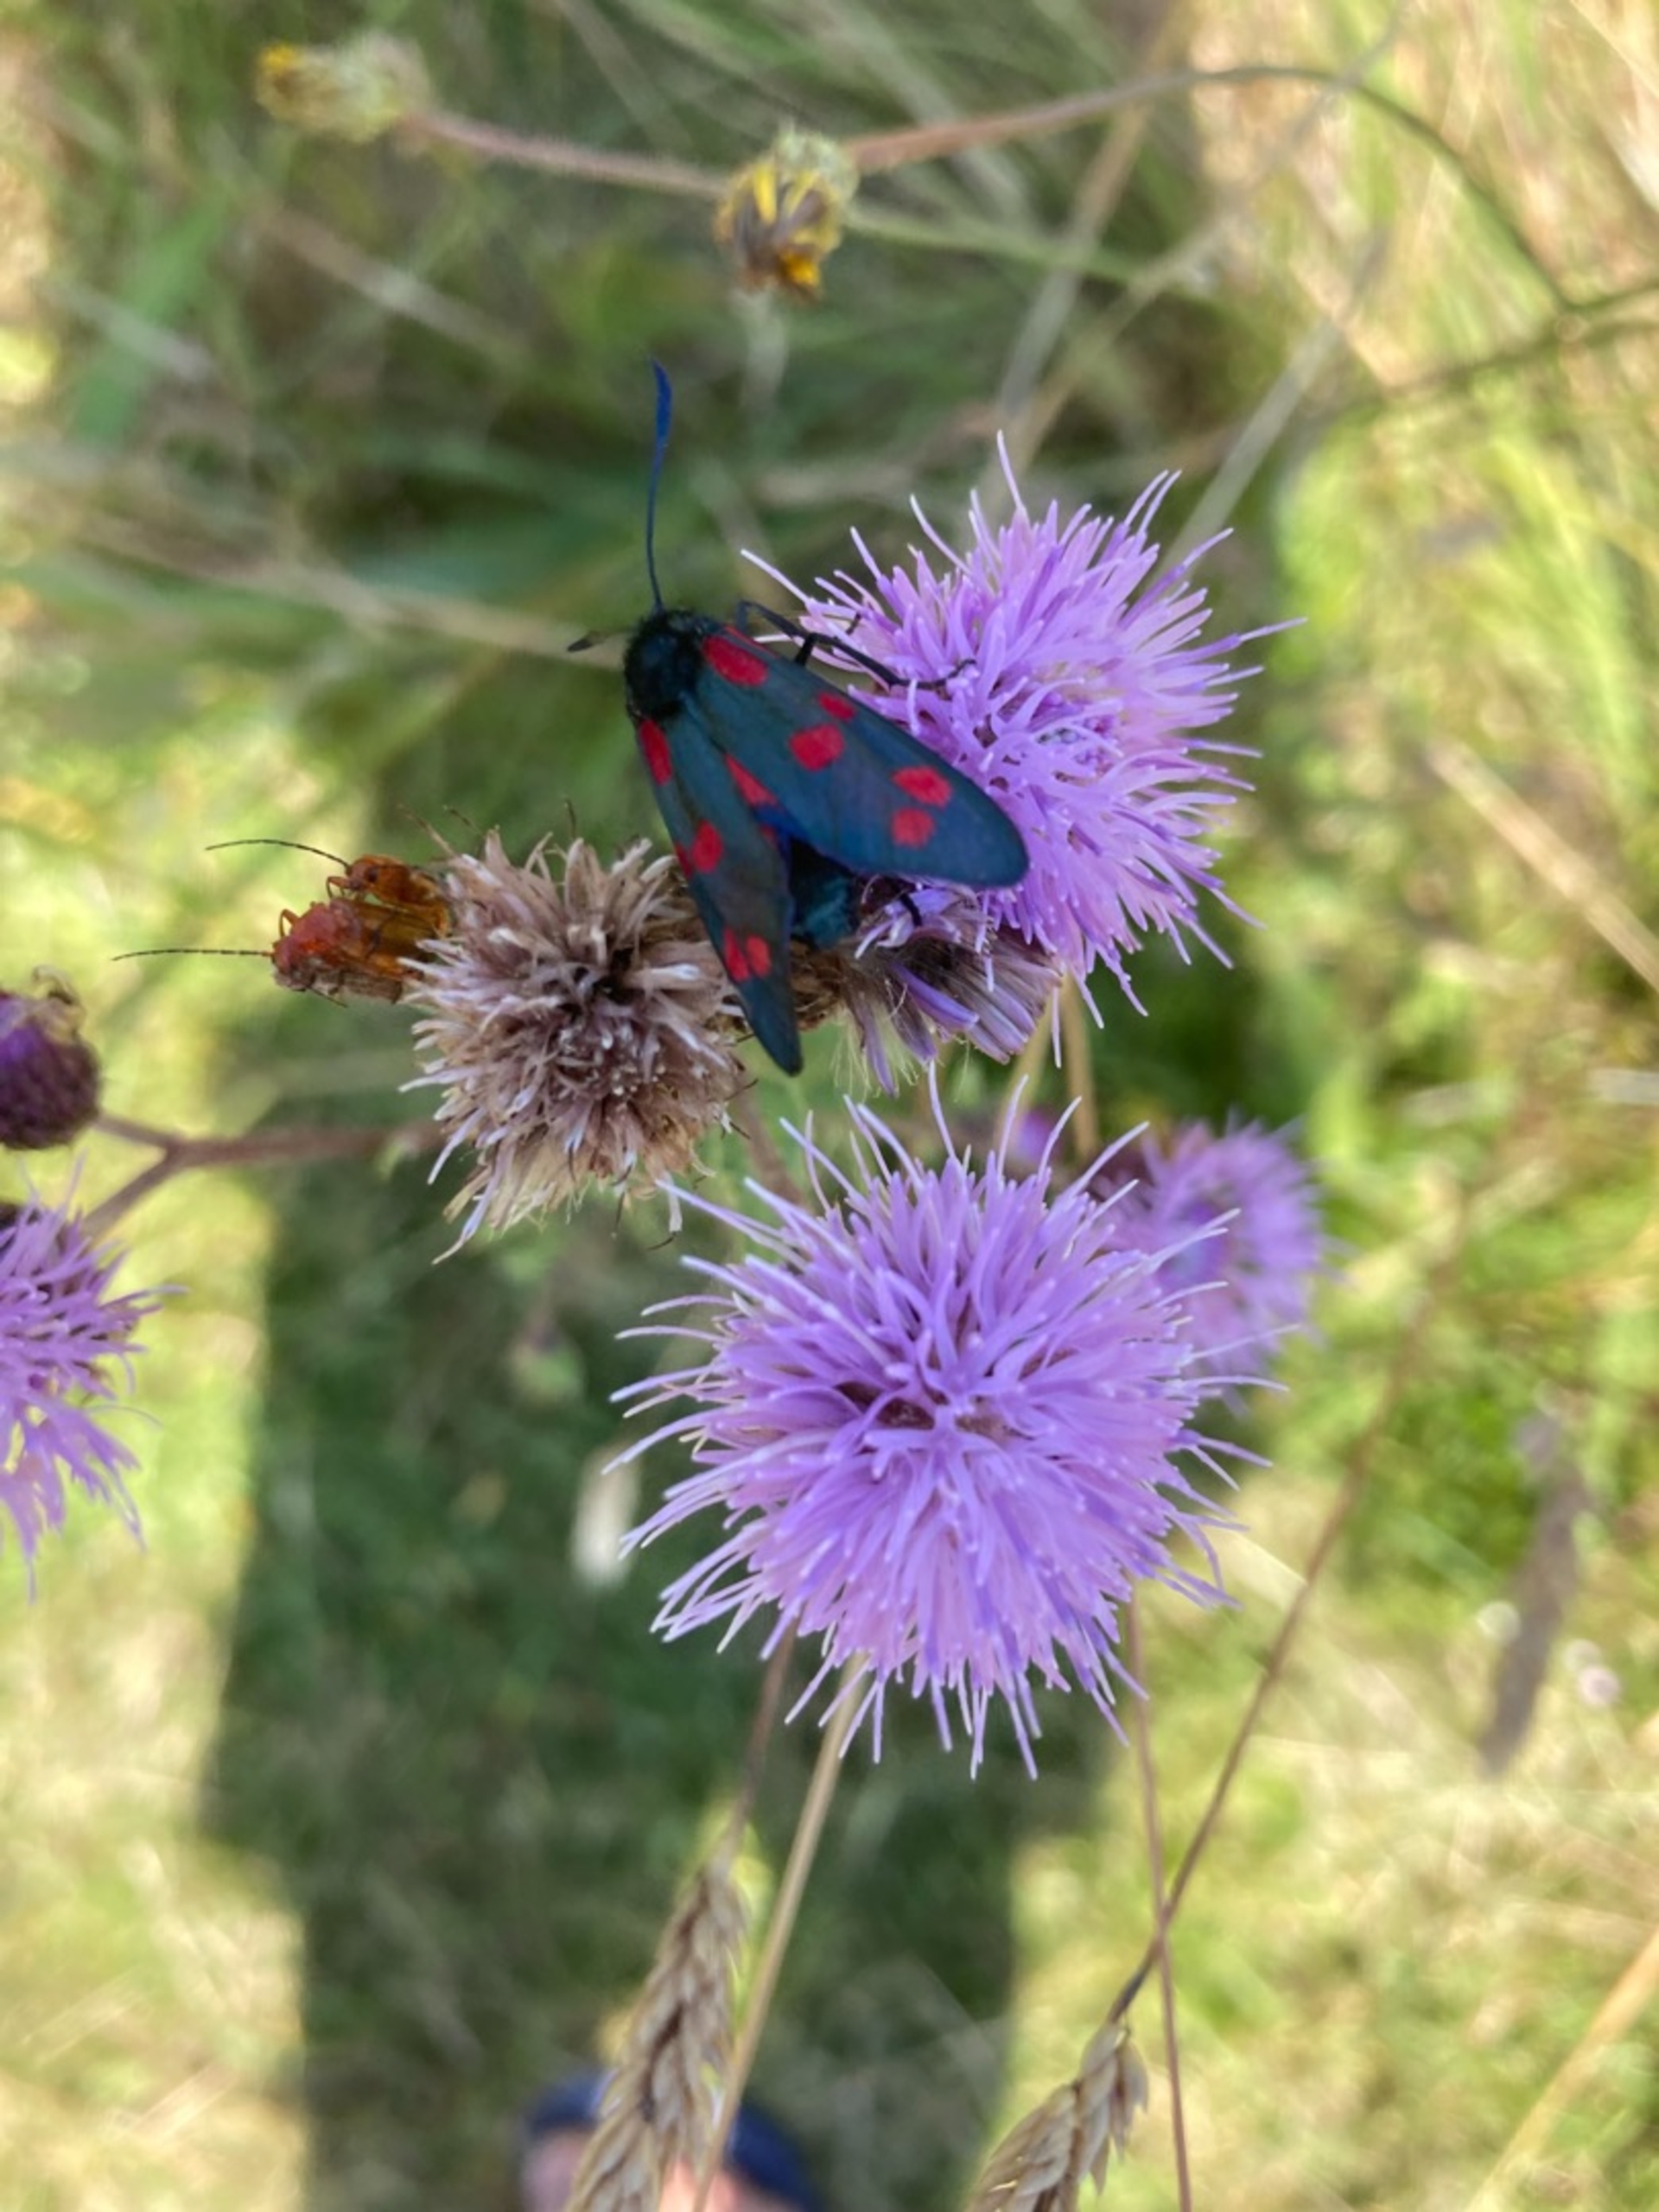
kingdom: Animalia
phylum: Arthropoda
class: Insecta
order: Lepidoptera
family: Zygaenidae
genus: Zygaena
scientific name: Zygaena filipendulae
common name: Seksplettet køllesværmer
